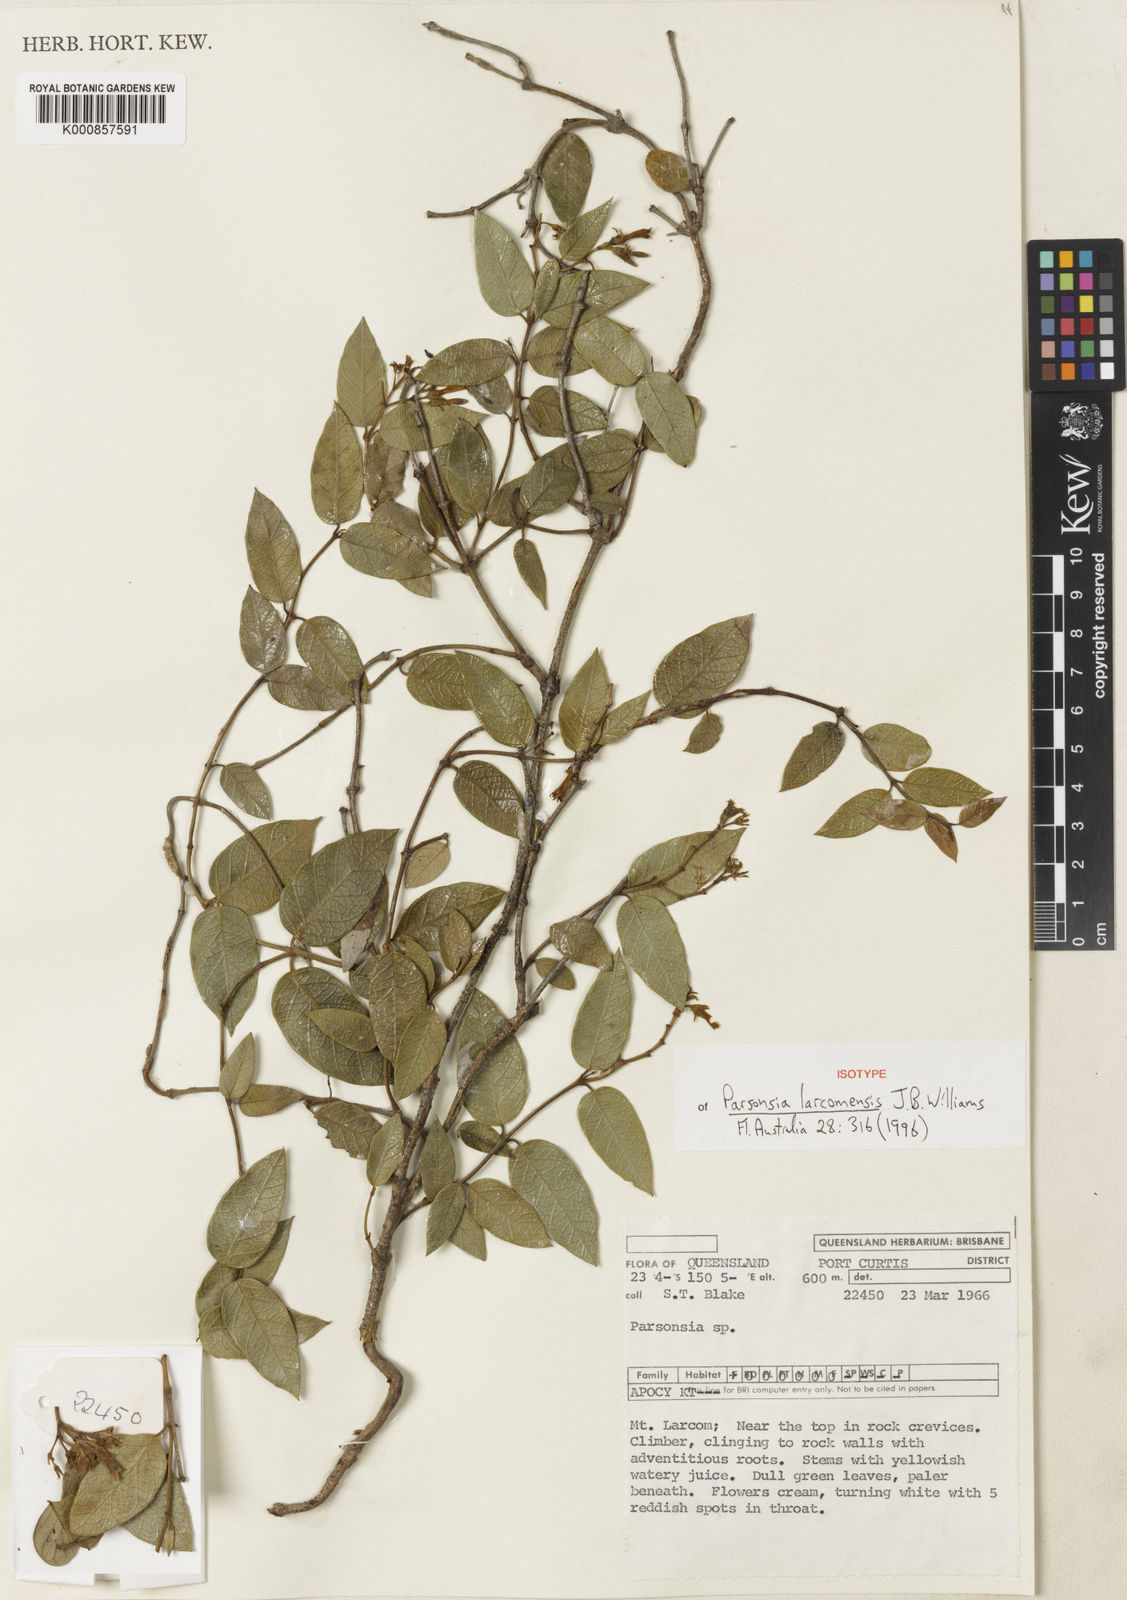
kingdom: Plantae
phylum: Tracheophyta
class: Magnoliopsida
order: Gentianales
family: Apocynaceae
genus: Parsonsia
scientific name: Parsonsia larcomensis
